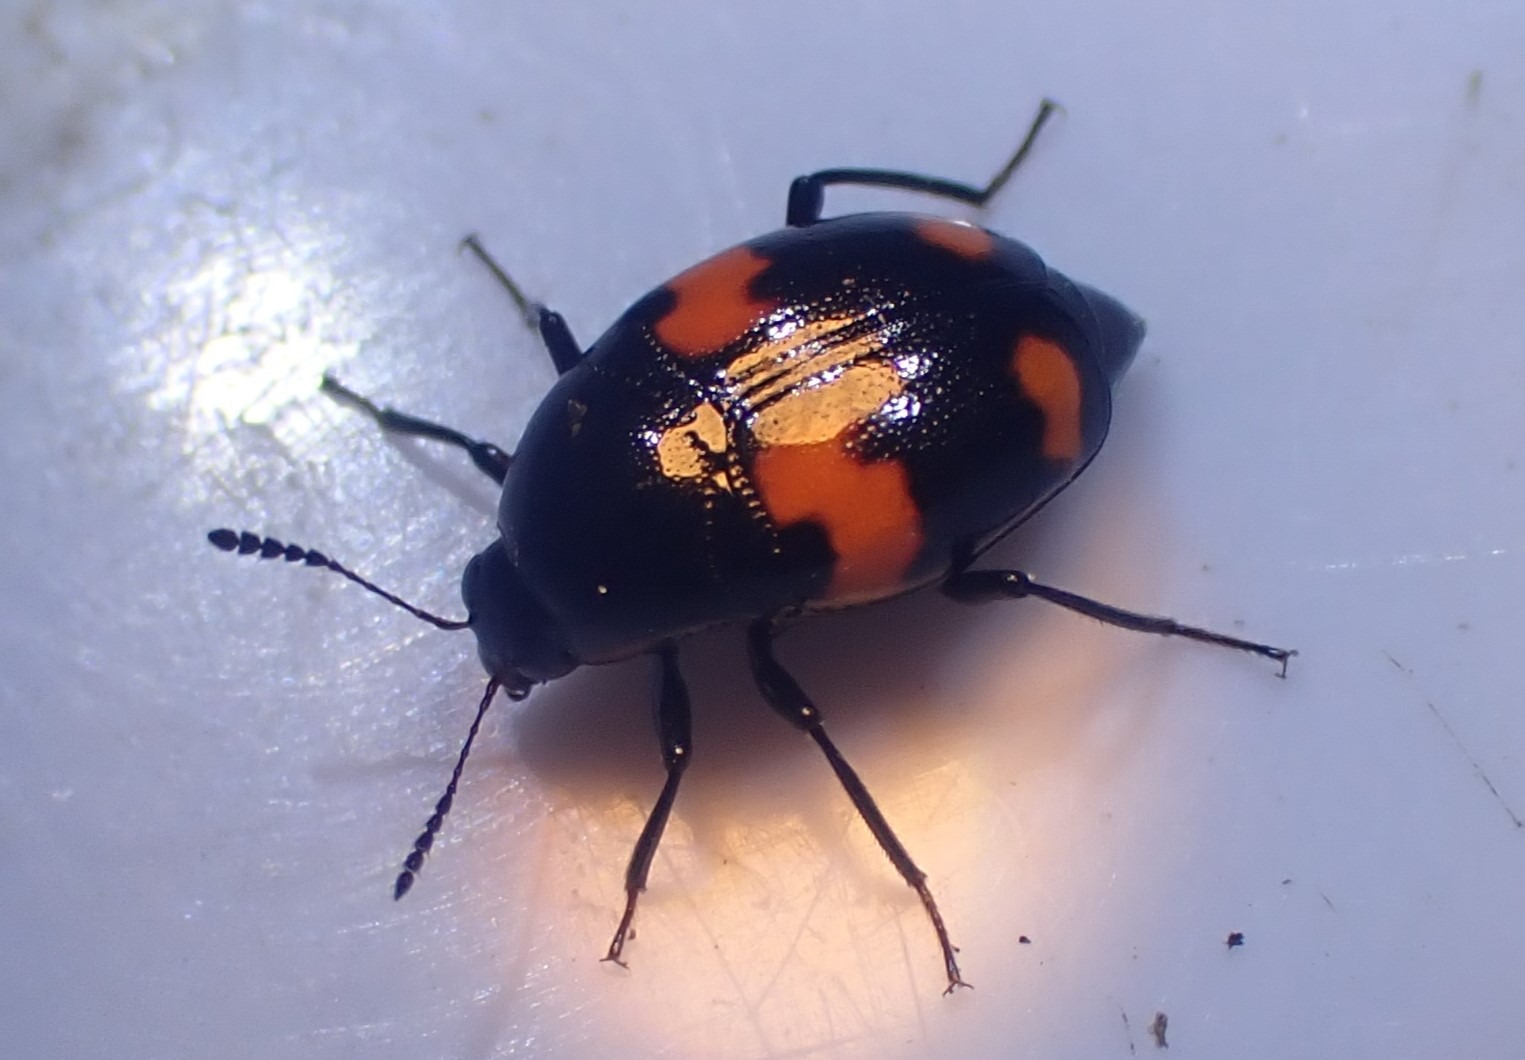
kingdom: Animalia
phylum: Arthropoda
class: Insecta
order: Coleoptera
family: Staphylinidae
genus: Scaphidium
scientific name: Scaphidium quadrimaculatum
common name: Dråberovbille
